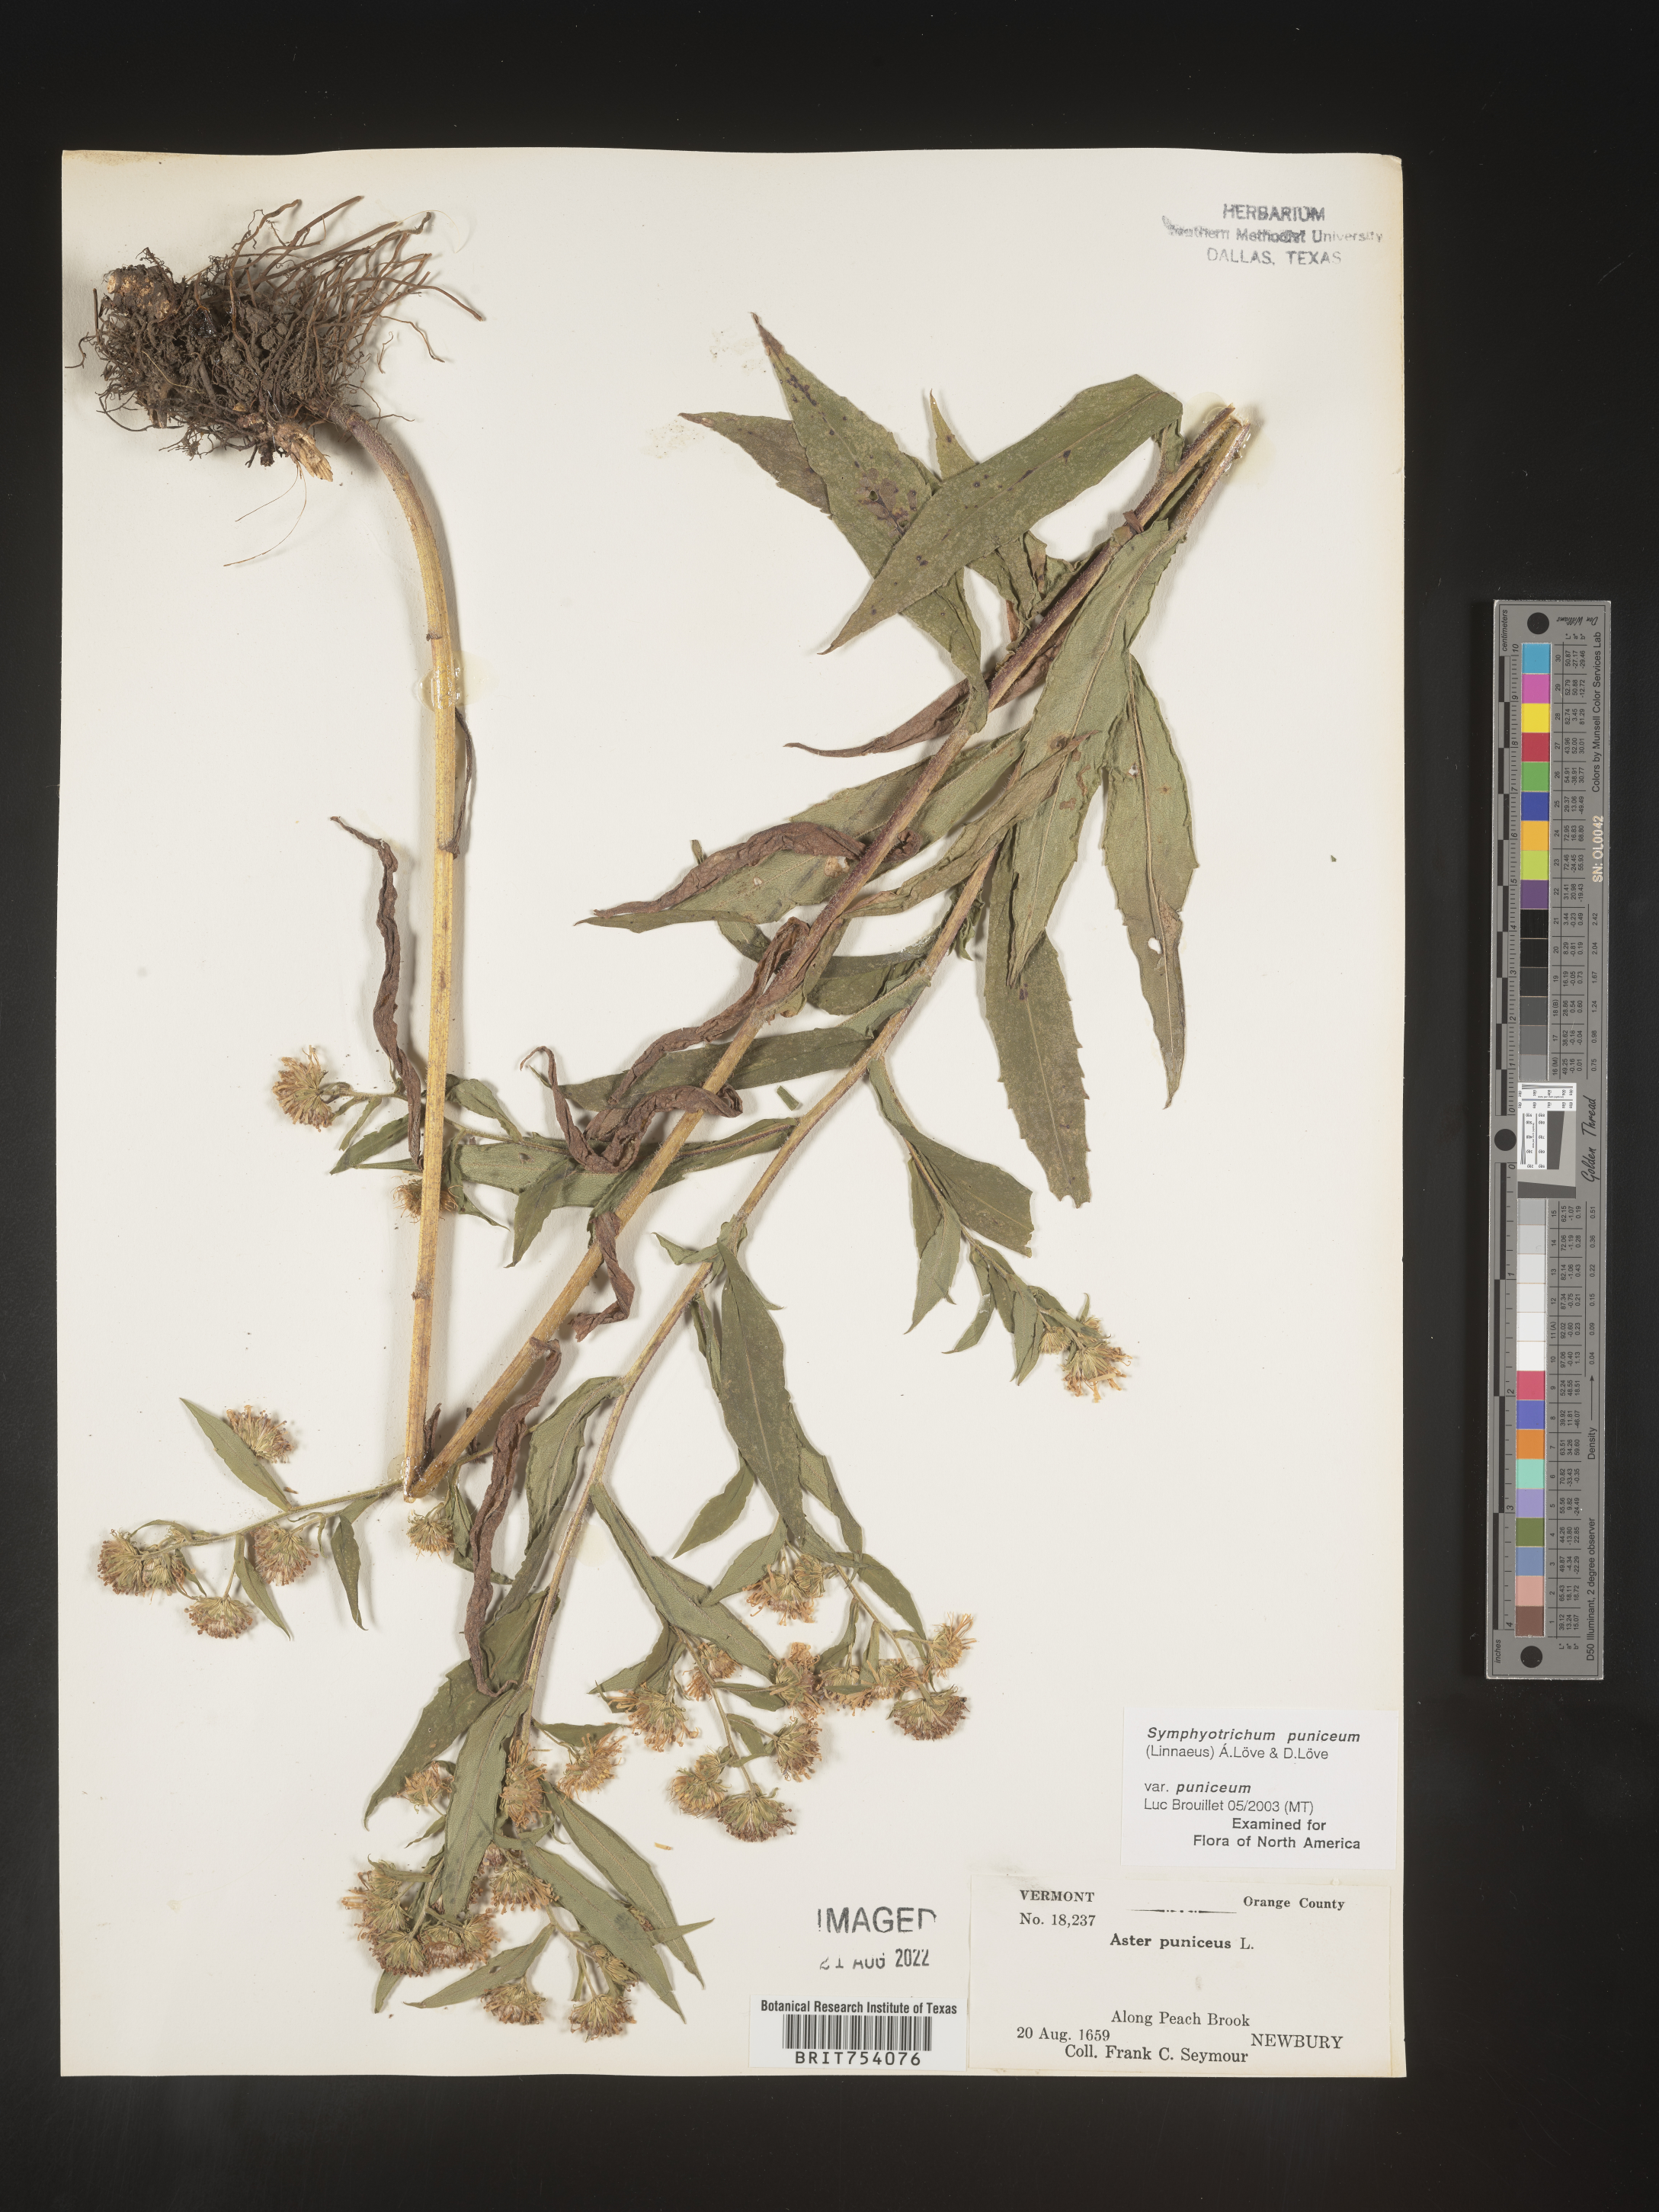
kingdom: Plantae
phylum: Tracheophyta
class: Magnoliopsida
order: Asterales
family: Asteraceae
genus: Symphyotrichum
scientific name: Symphyotrichum puniceum
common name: Bog aster
